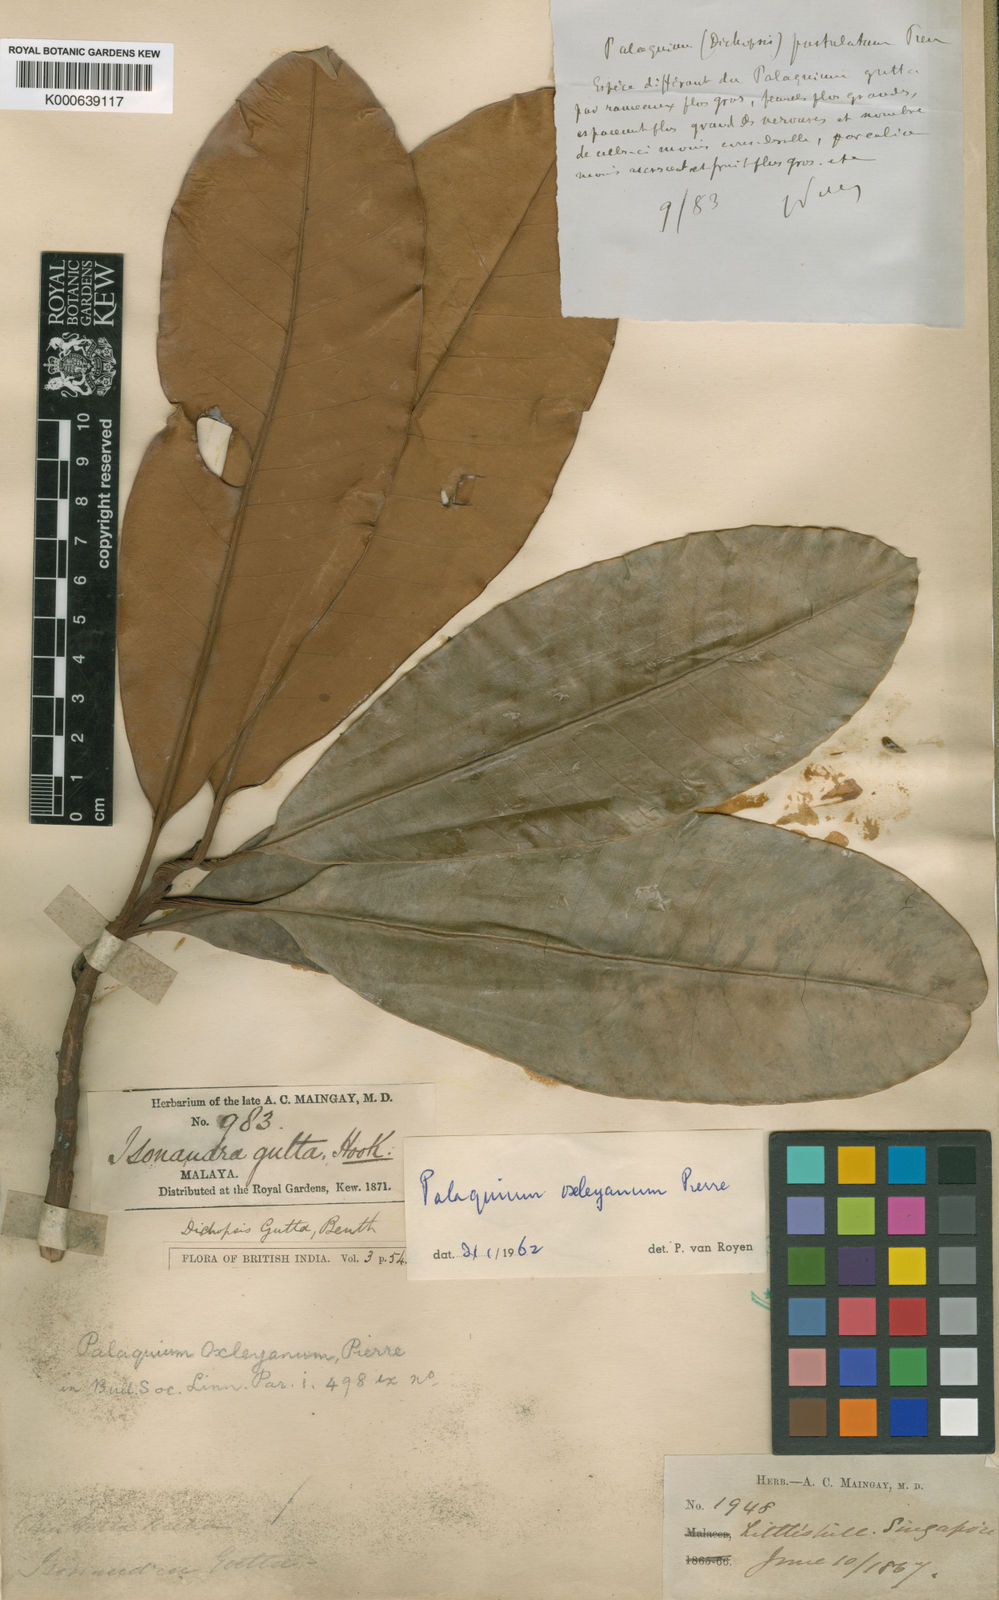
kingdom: Plantae
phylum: Tracheophyta
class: Magnoliopsida
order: Ericales
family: Sapotaceae
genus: Palaquium
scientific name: Palaquium oxleyanum
